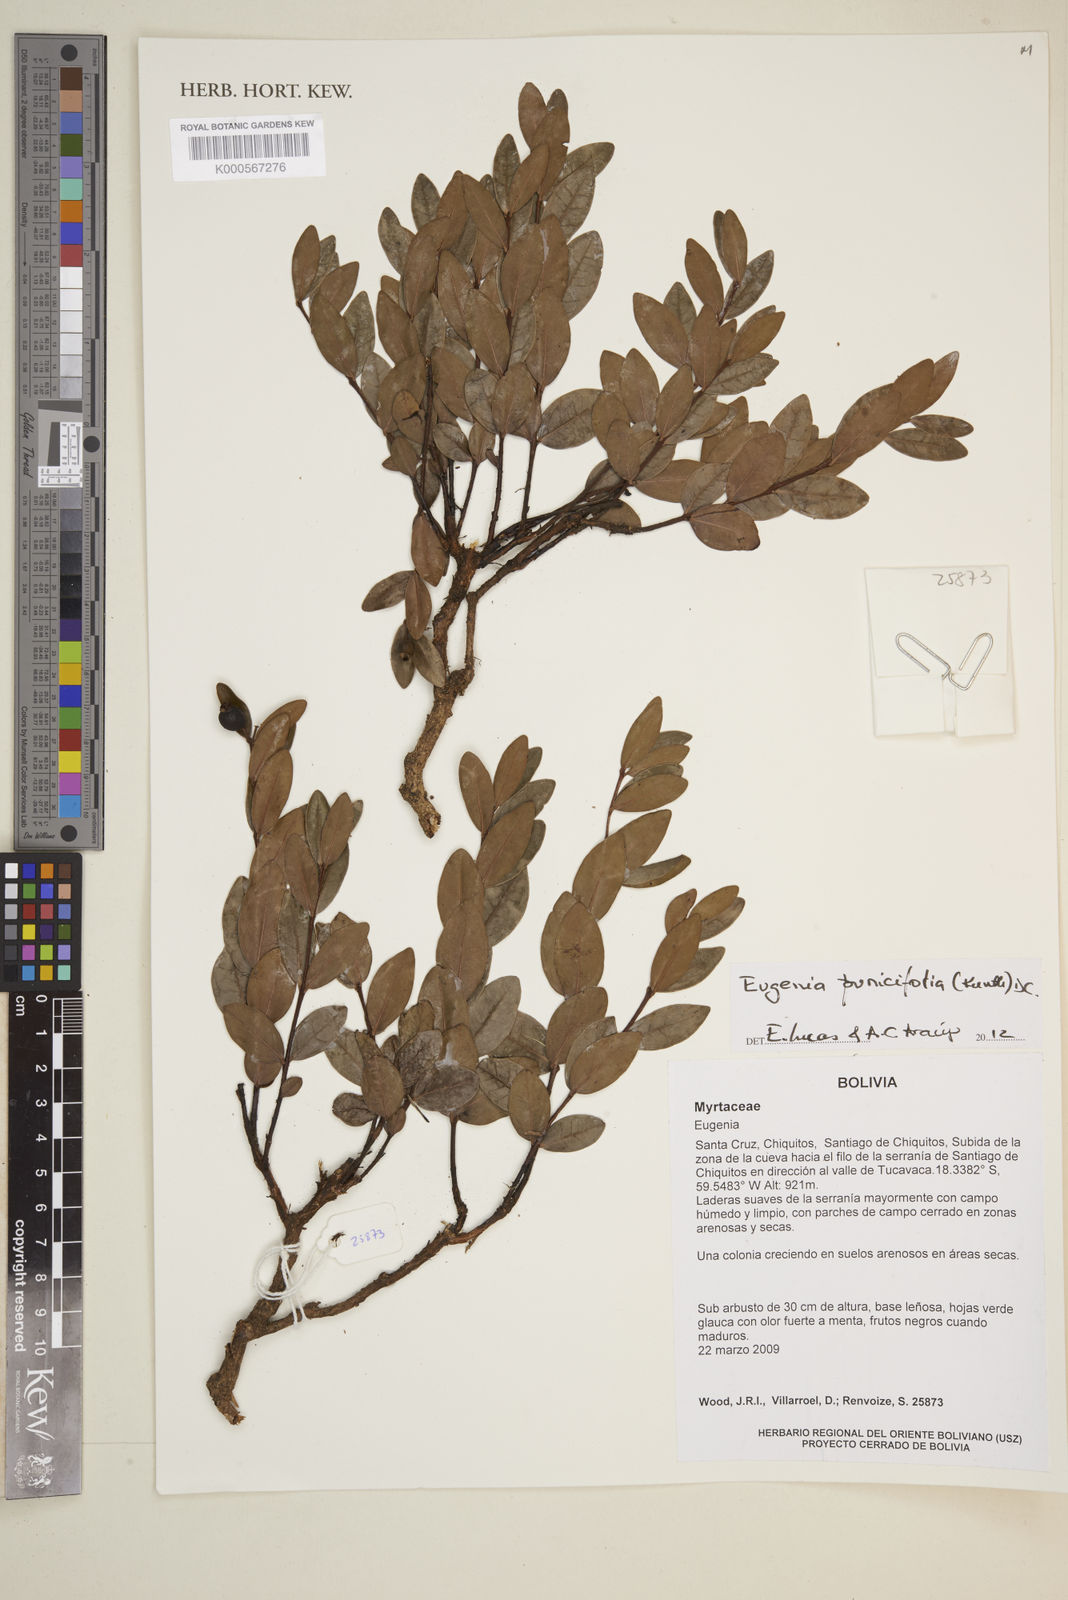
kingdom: Plantae
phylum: Tracheophyta
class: Magnoliopsida
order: Myrtales
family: Myrtaceae
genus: Eugenia
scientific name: Eugenia punicifolia
